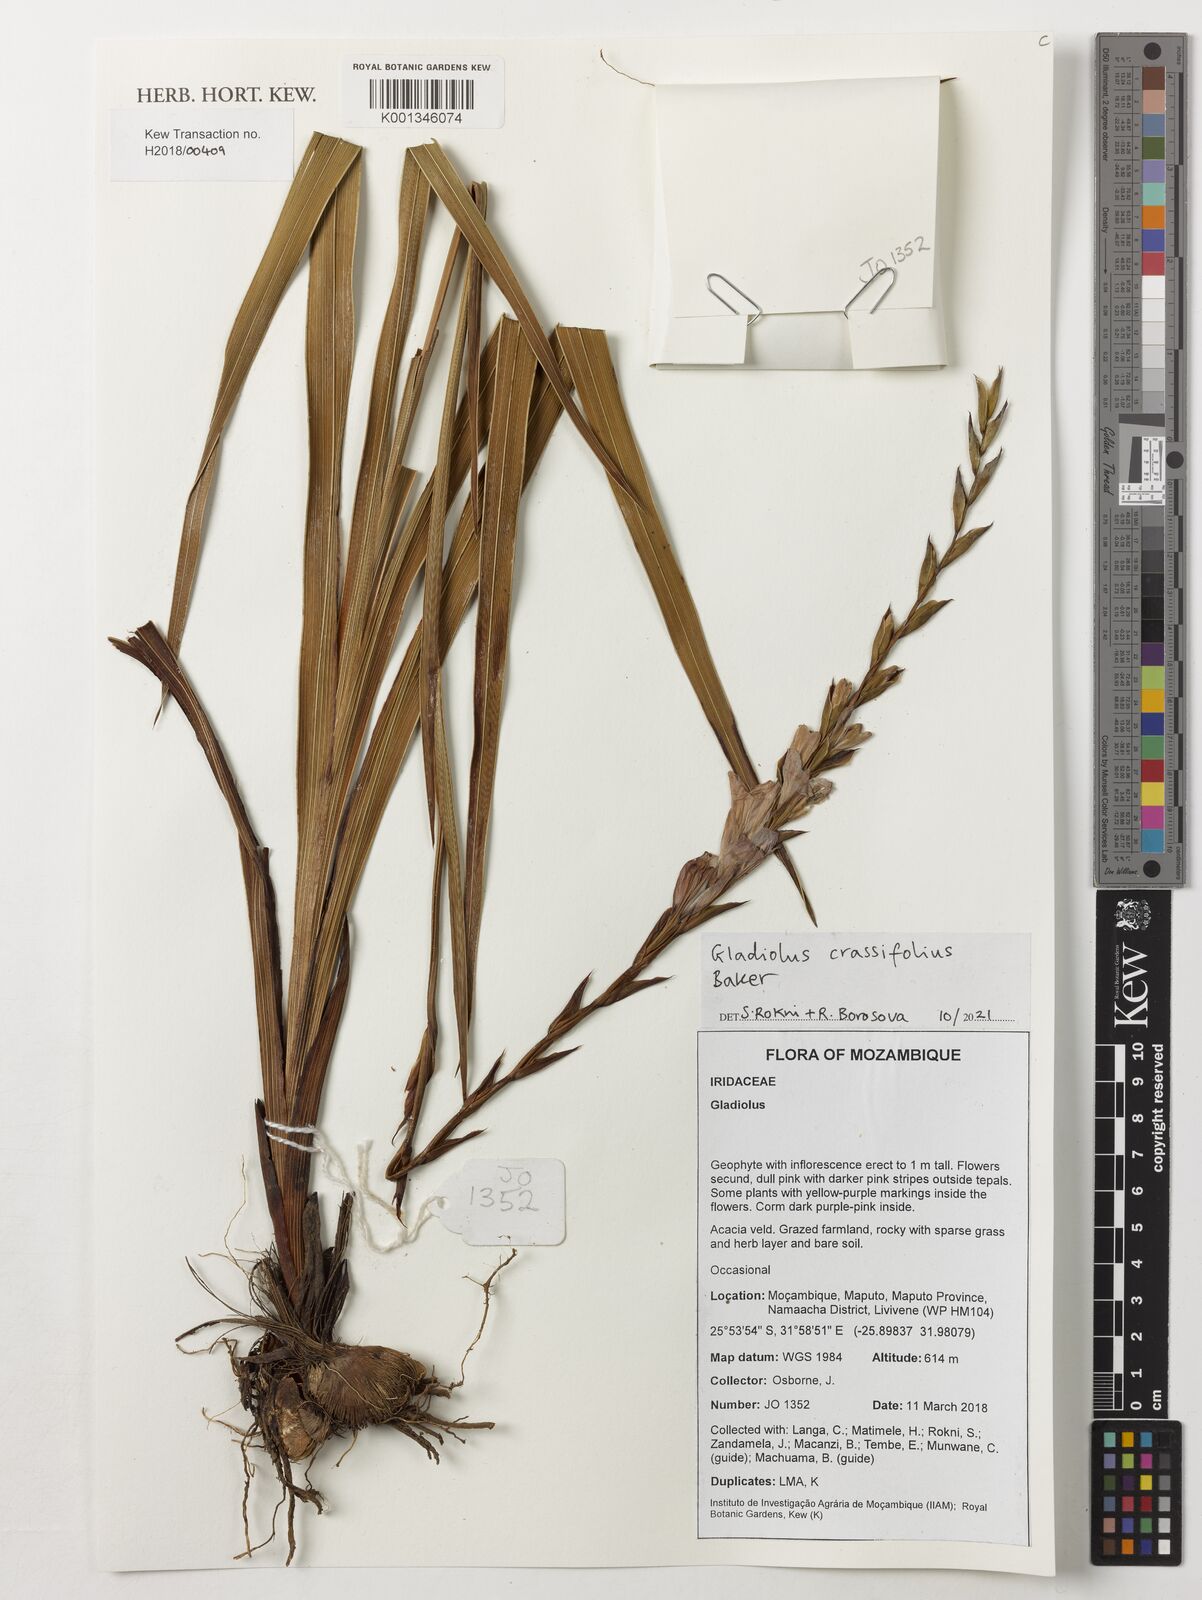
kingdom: Plantae
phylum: Tracheophyta
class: Liliopsida
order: Asparagales
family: Iridaceae
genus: Gladiolus
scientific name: Gladiolus
